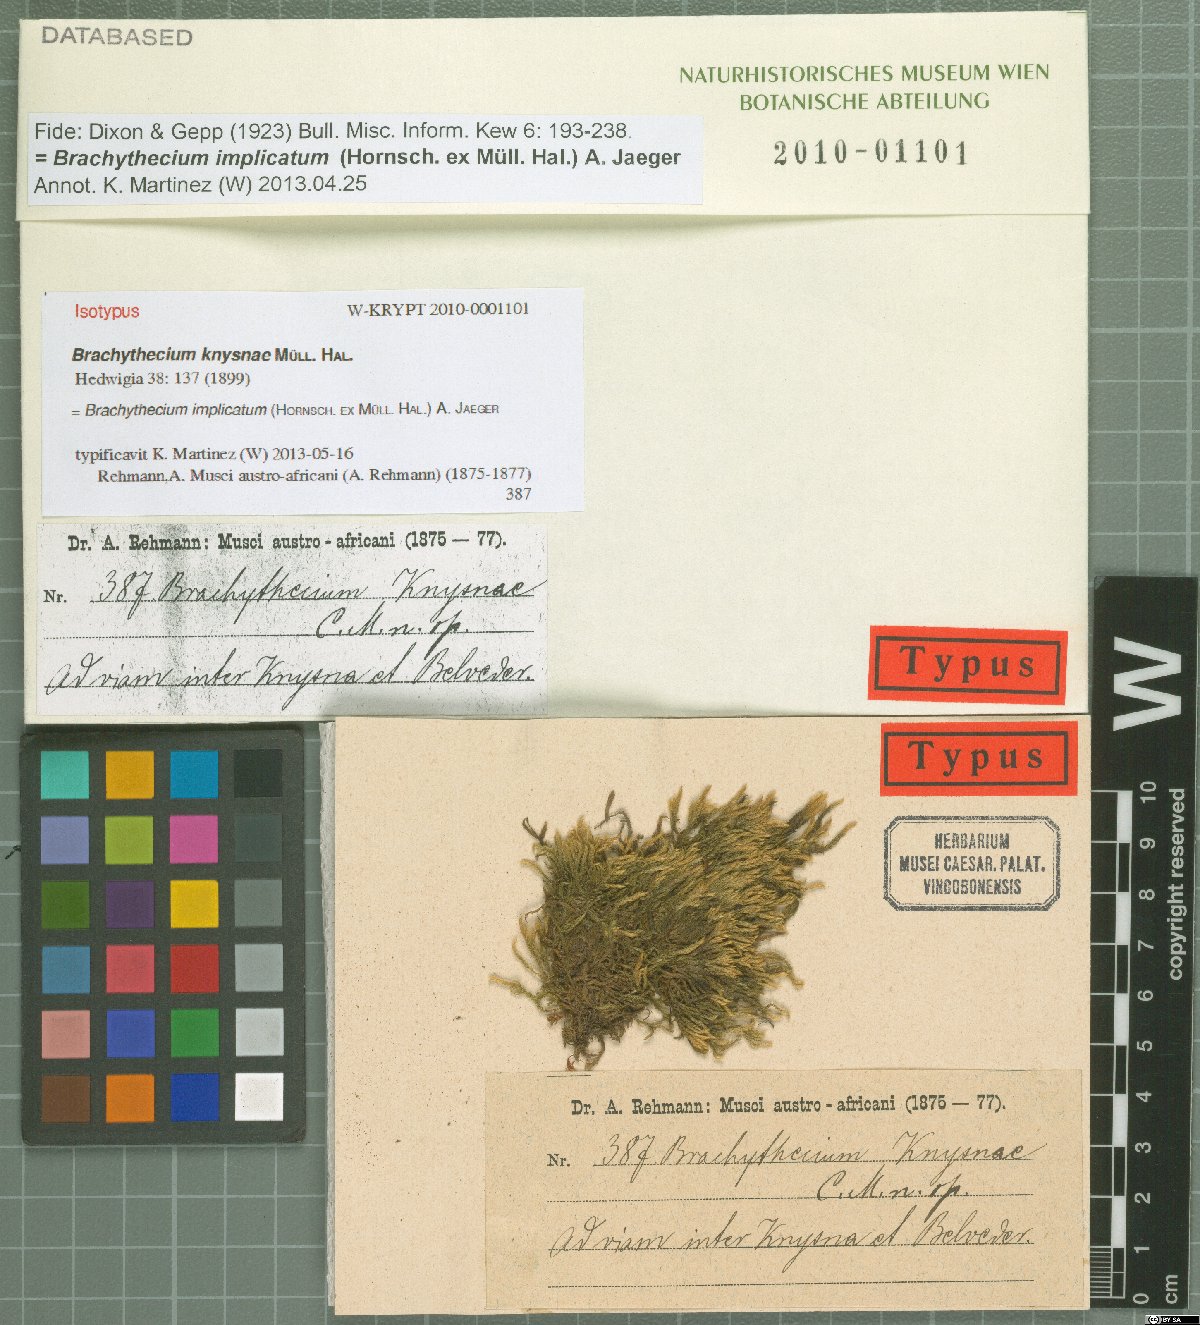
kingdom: Plantae
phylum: Bryophyta
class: Bryopsida
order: Hypnales
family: Brachytheciaceae
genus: Brachythecium
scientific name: Brachythecium ruderale
